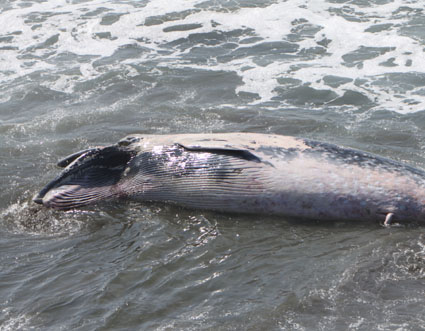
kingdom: Animalia
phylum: Chordata
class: Mammalia
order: Cetacea
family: Balaenopteridae
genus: Balaenoptera
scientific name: Balaenoptera acutorostrata
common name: Minke whale
